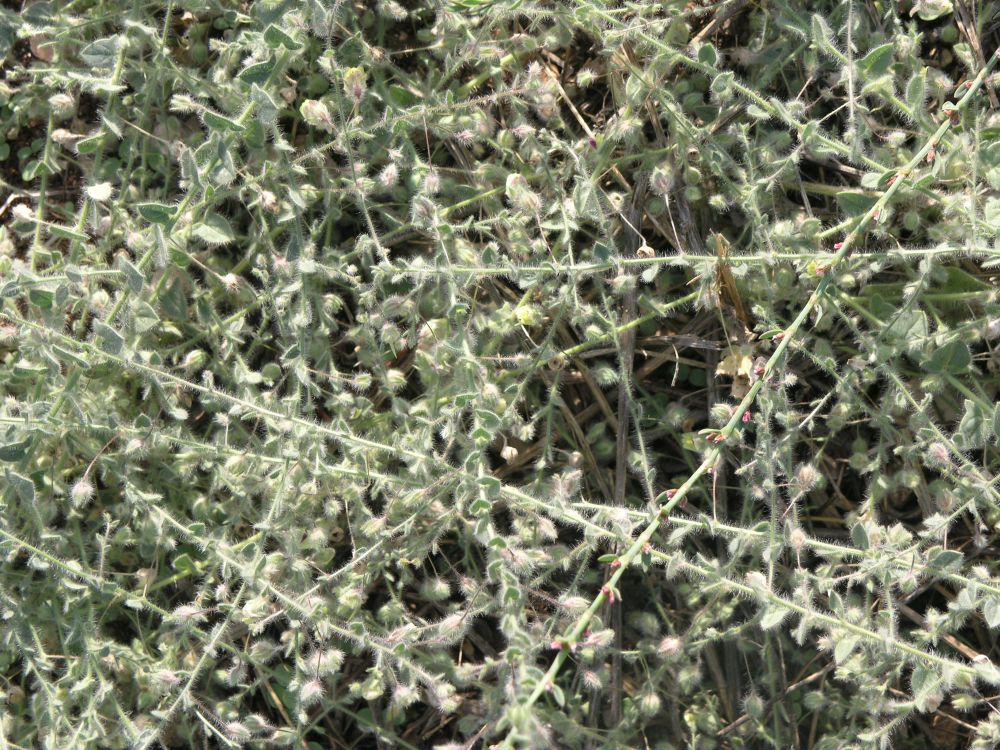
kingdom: Plantae
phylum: Tracheophyta
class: Magnoliopsida
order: Lamiales
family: Plantaginaceae
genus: Kickxia
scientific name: Kickxia commutata
